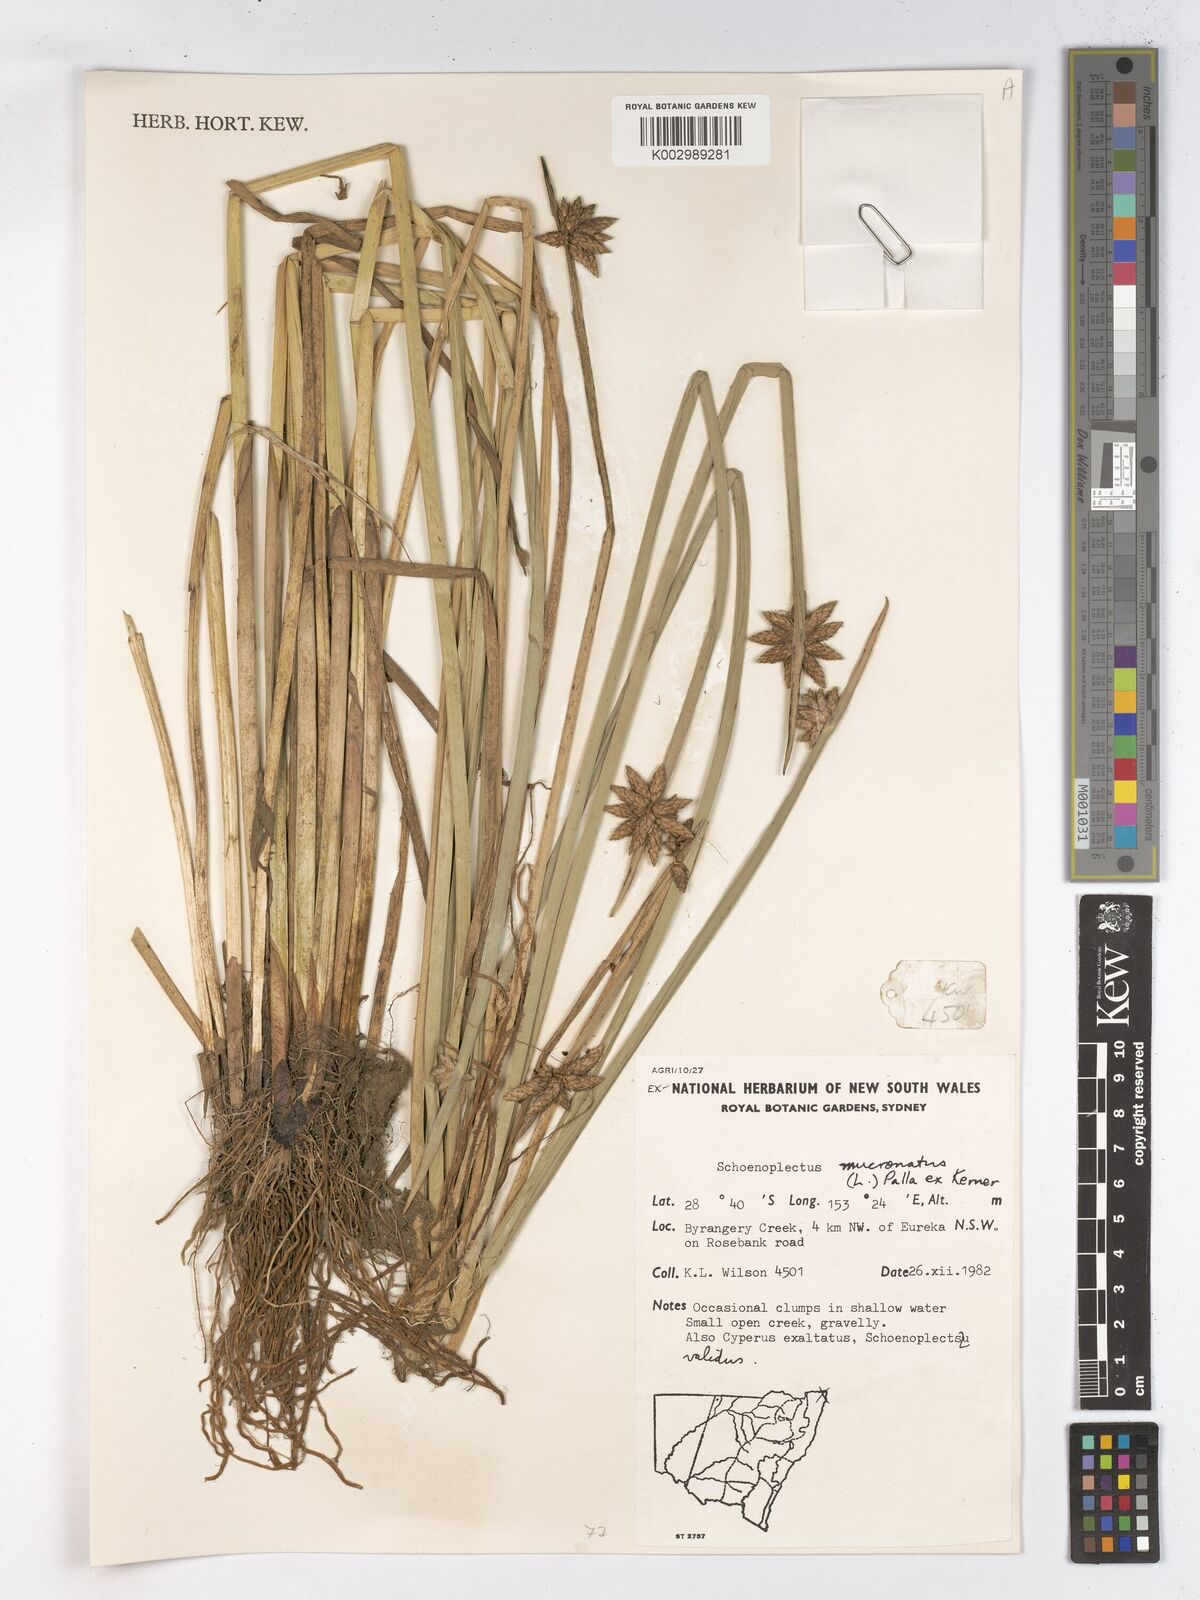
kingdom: Plantae
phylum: Tracheophyta
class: Liliopsida
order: Poales
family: Cyperaceae
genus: Schoenoplectiella
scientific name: Schoenoplectiella mucronata
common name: Bog bulrush
